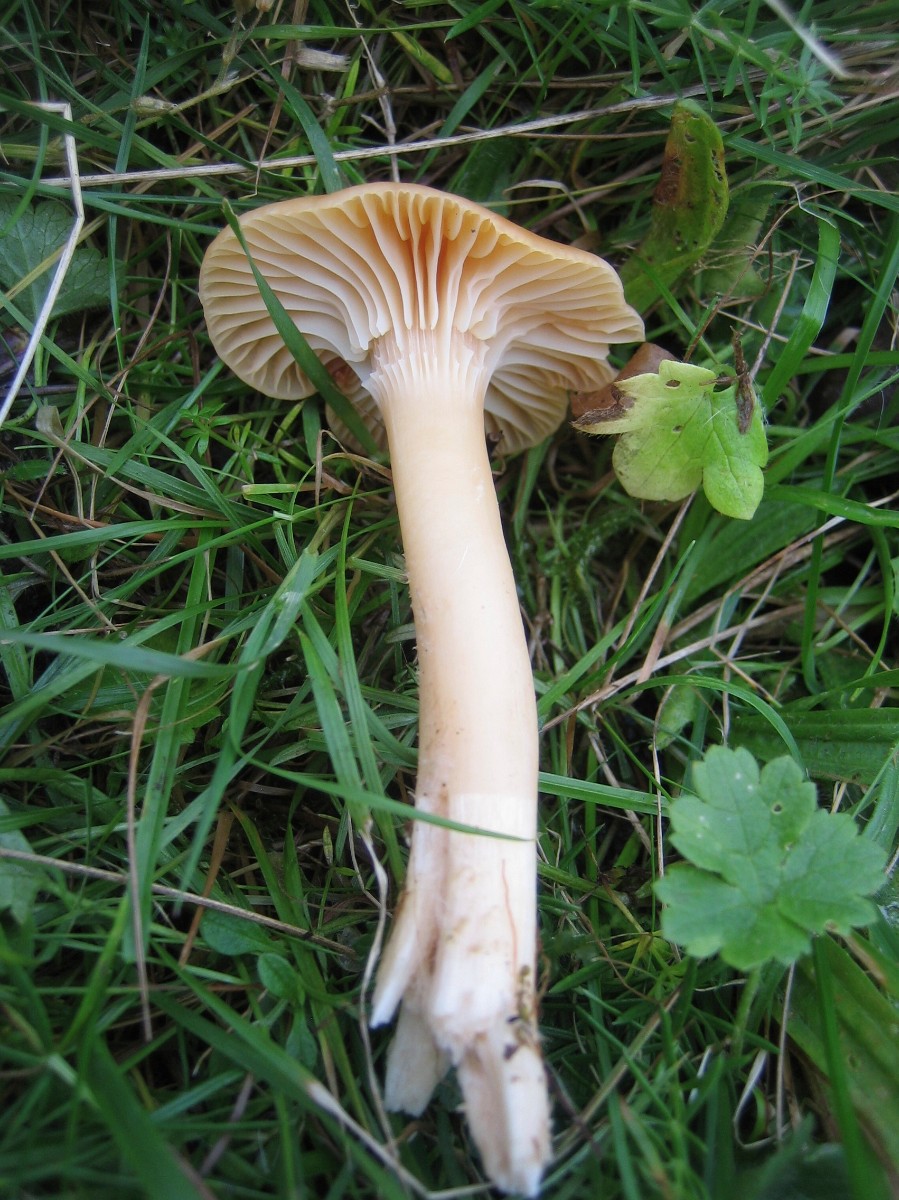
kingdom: Fungi
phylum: Basidiomycota
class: Agaricomycetes
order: Agaricales
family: Hygrophoraceae
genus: Cuphophyllus
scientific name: Cuphophyllus pratensis
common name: eng-vokshat
